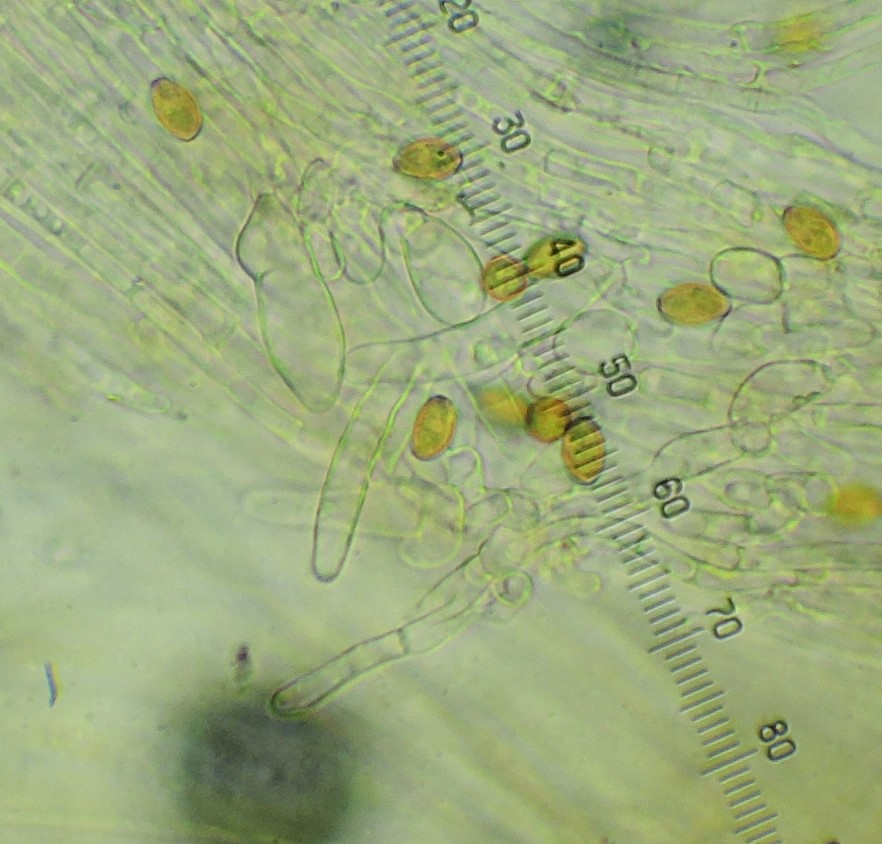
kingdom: Fungi
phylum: Basidiomycota
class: Agaricomycetes
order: Agaricales
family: Bolbitiaceae
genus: Conocybe
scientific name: Conocybe moseri
